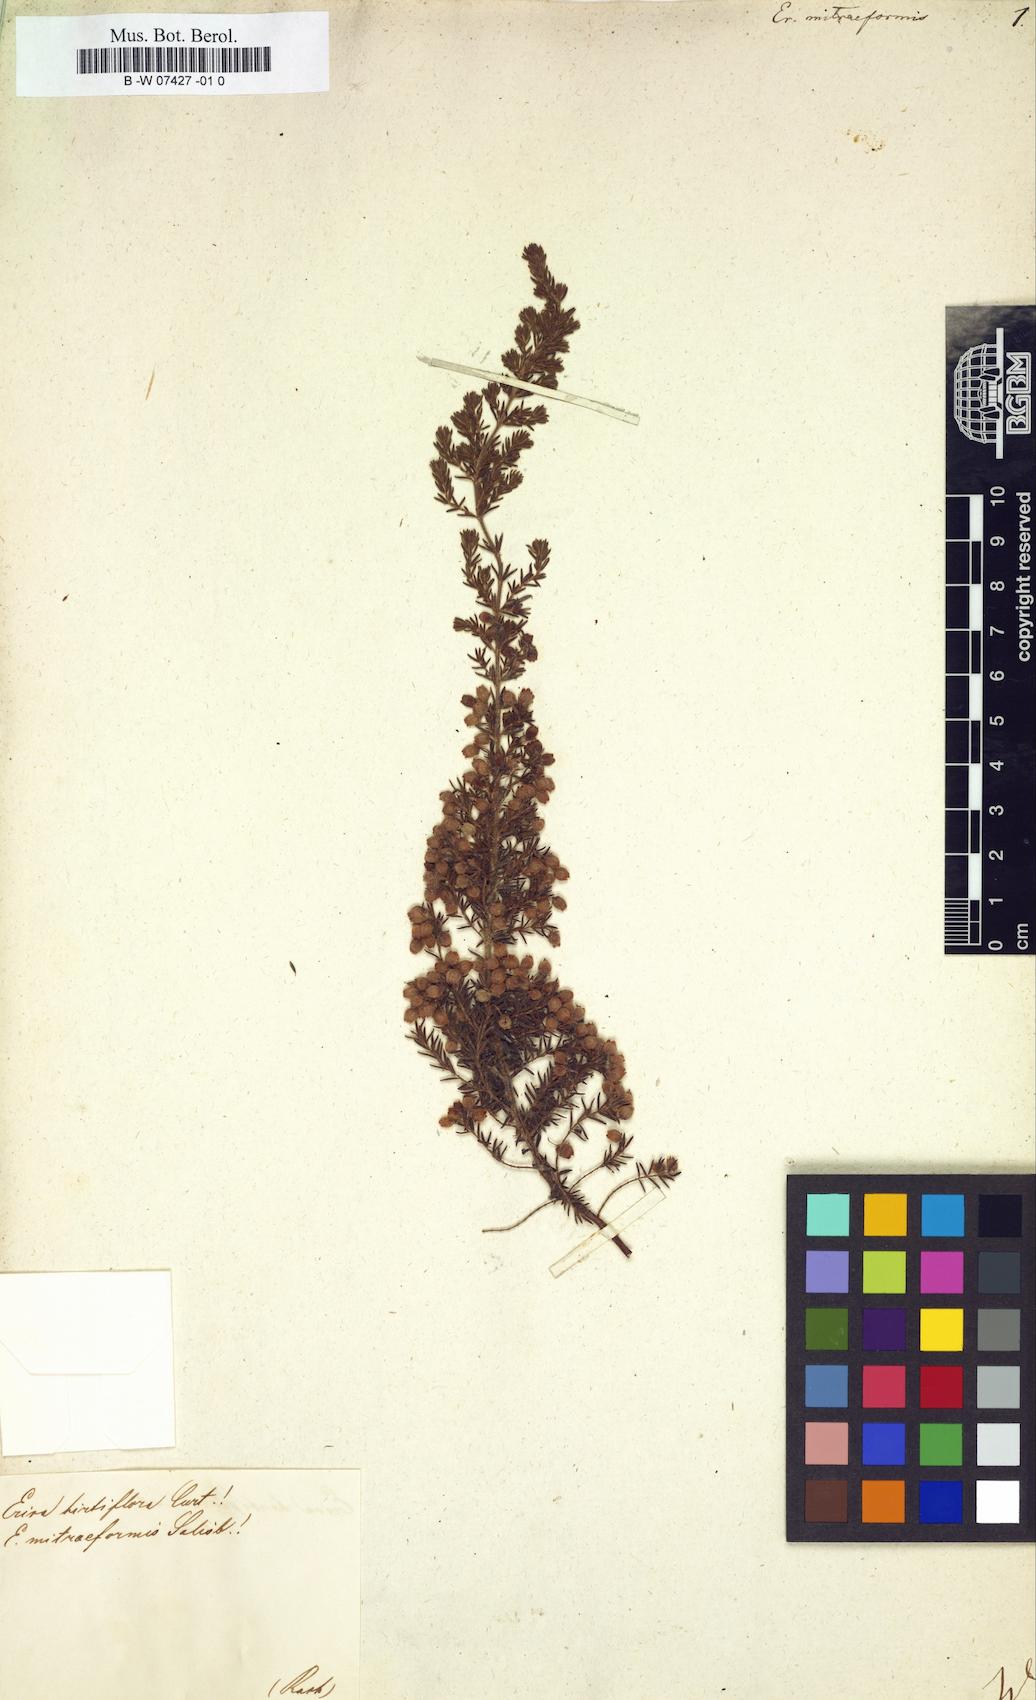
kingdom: Plantae
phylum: Tracheophyta
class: Magnoliopsida
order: Ericales
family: Ericaceae
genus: Erica
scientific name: Erica mitraeformis
